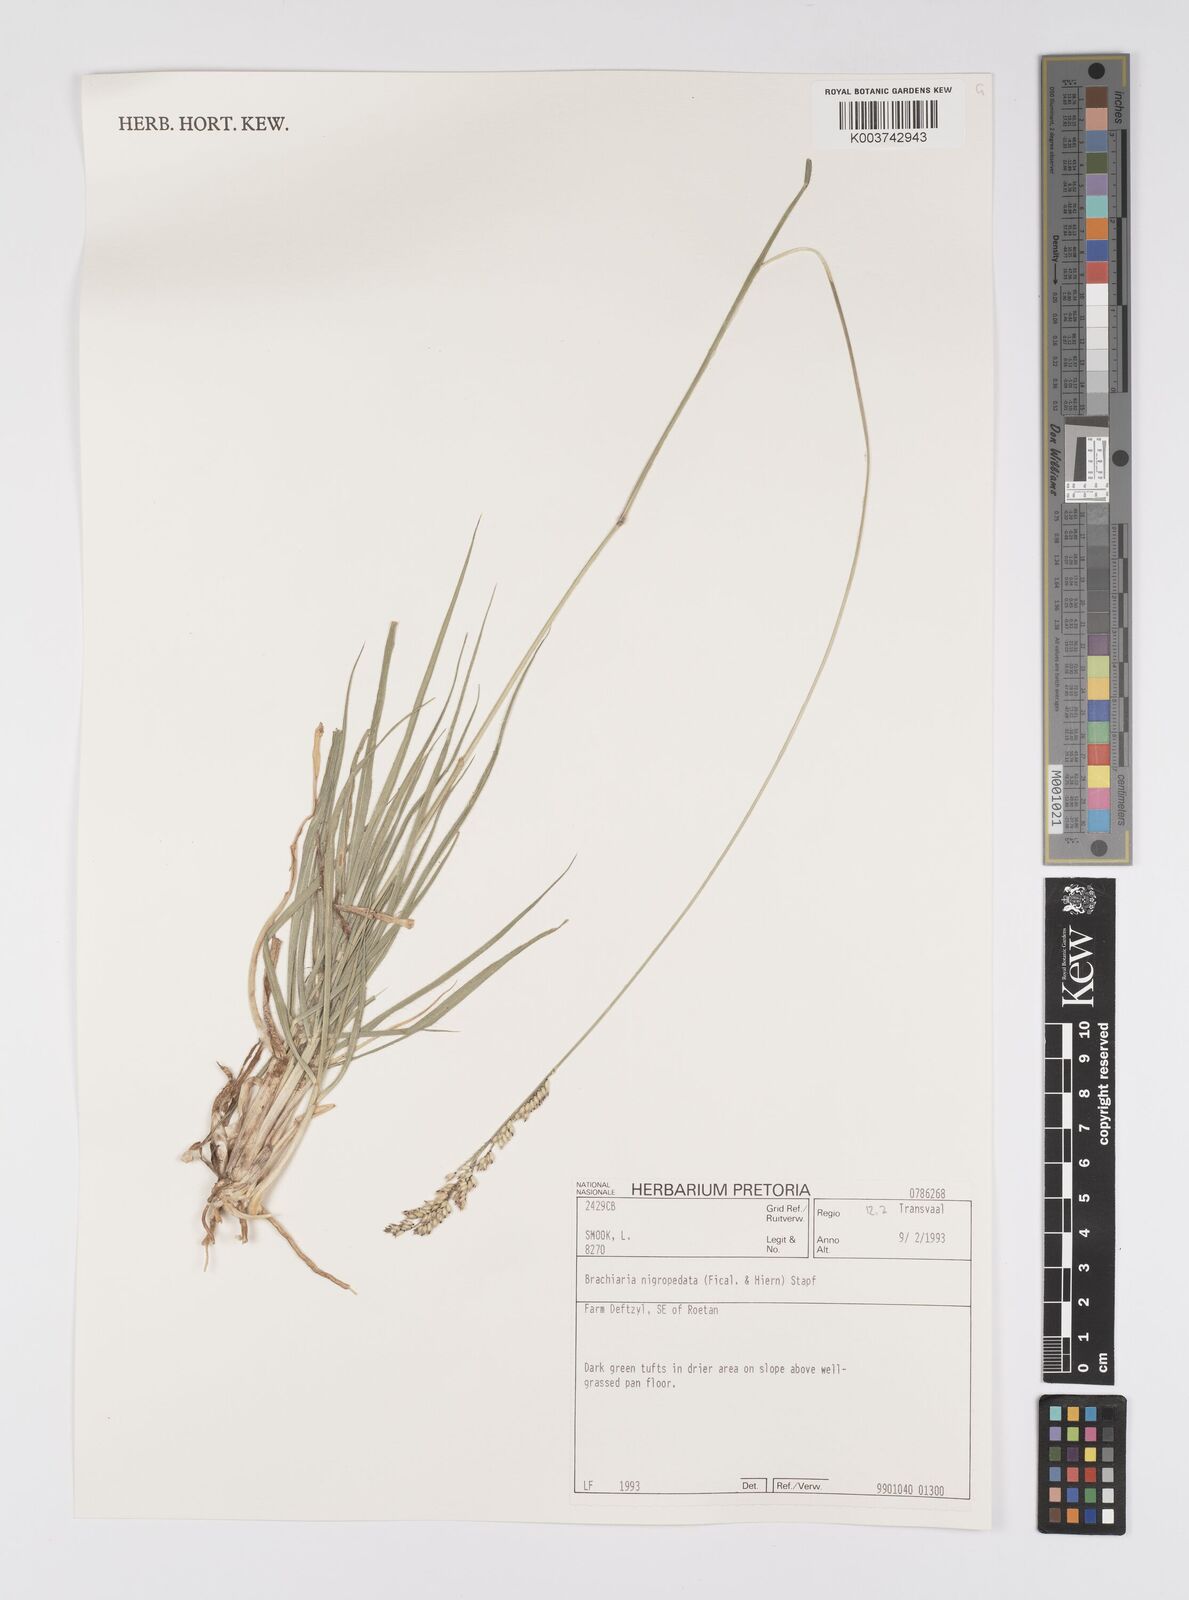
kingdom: Plantae
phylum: Tracheophyta
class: Liliopsida
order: Poales
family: Poaceae
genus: Urochloa
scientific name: Urochloa nigropedata
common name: Spotted signal grass
